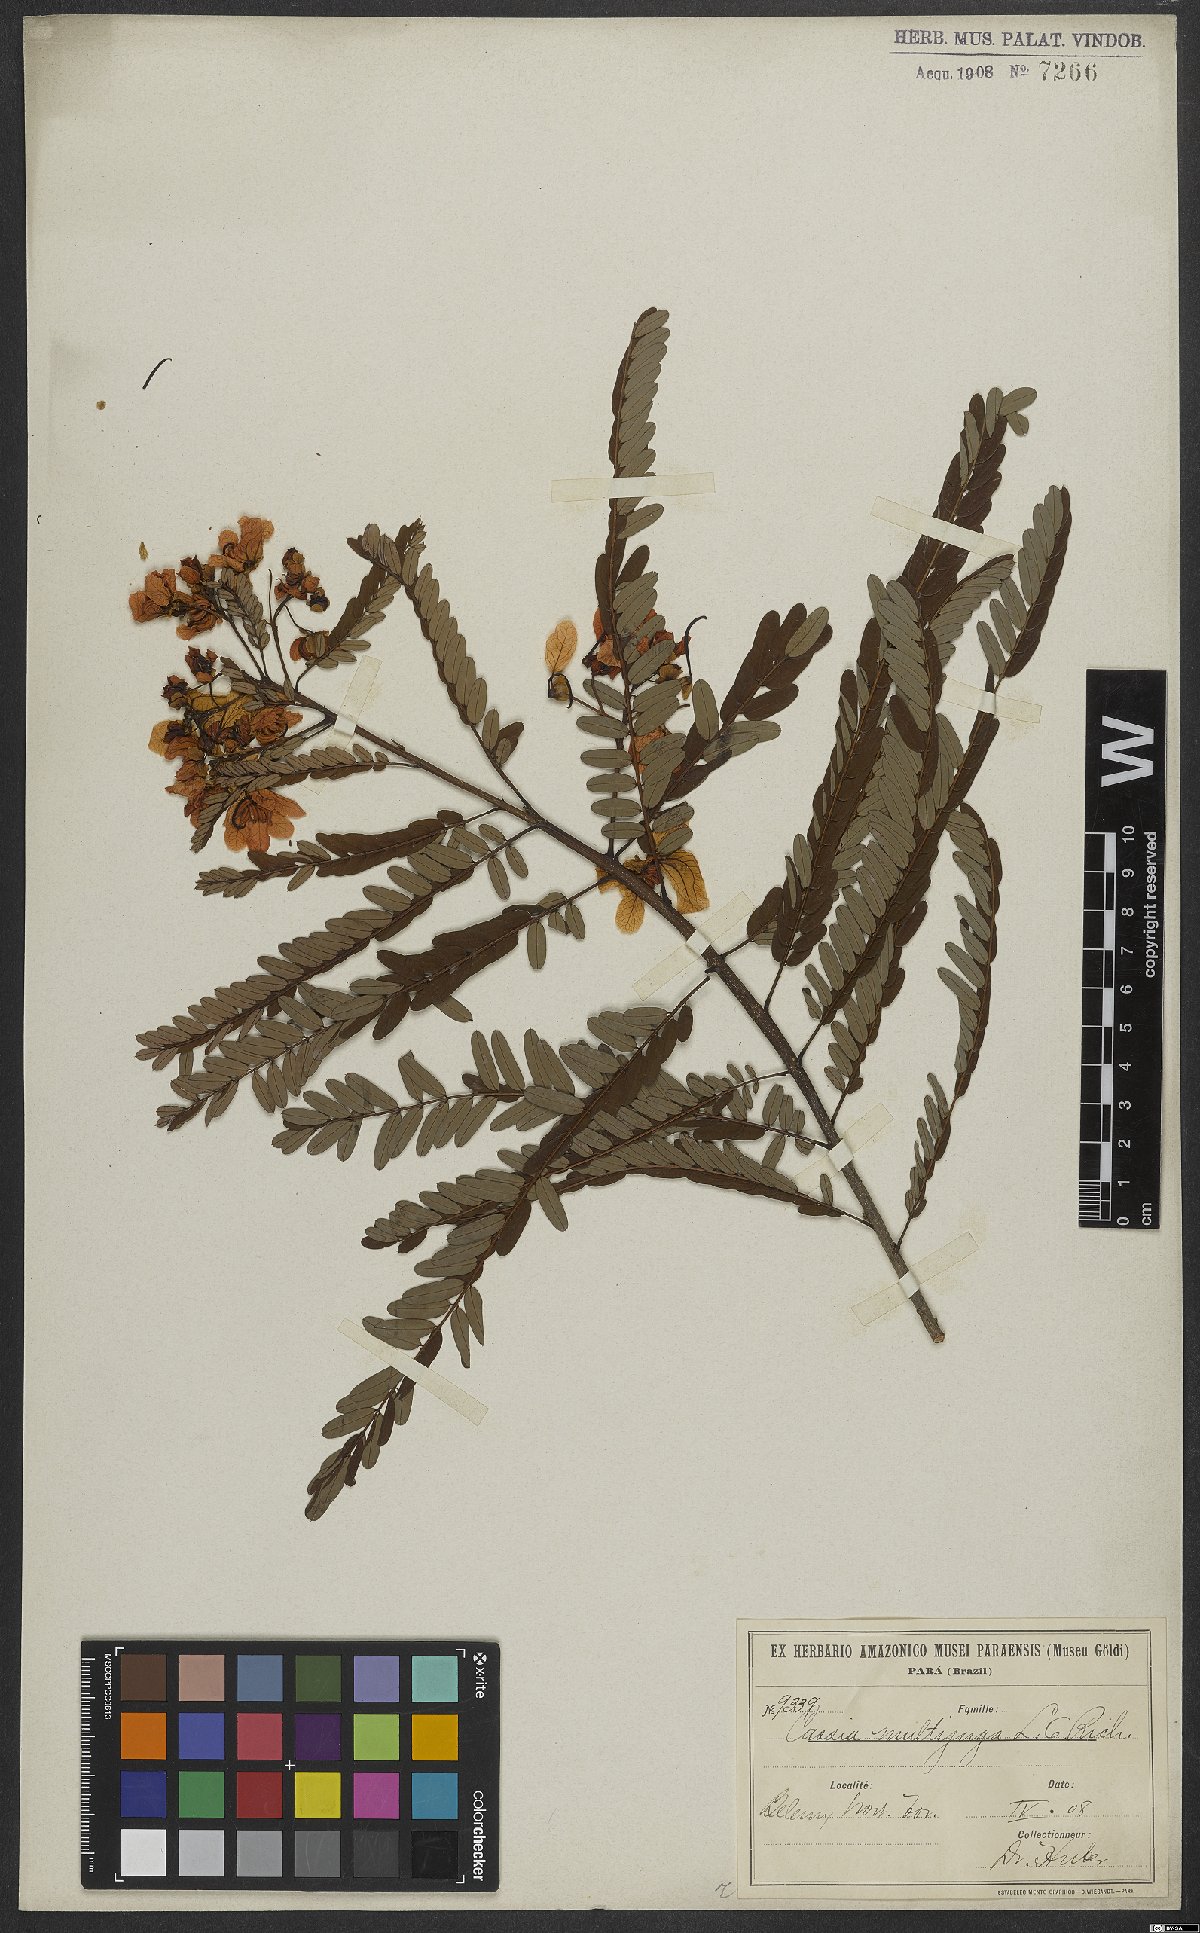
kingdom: Plantae
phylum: Tracheophyta
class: Magnoliopsida
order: Fabales
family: Fabaceae
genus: Senna
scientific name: Senna multijuga
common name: False sicklepod
